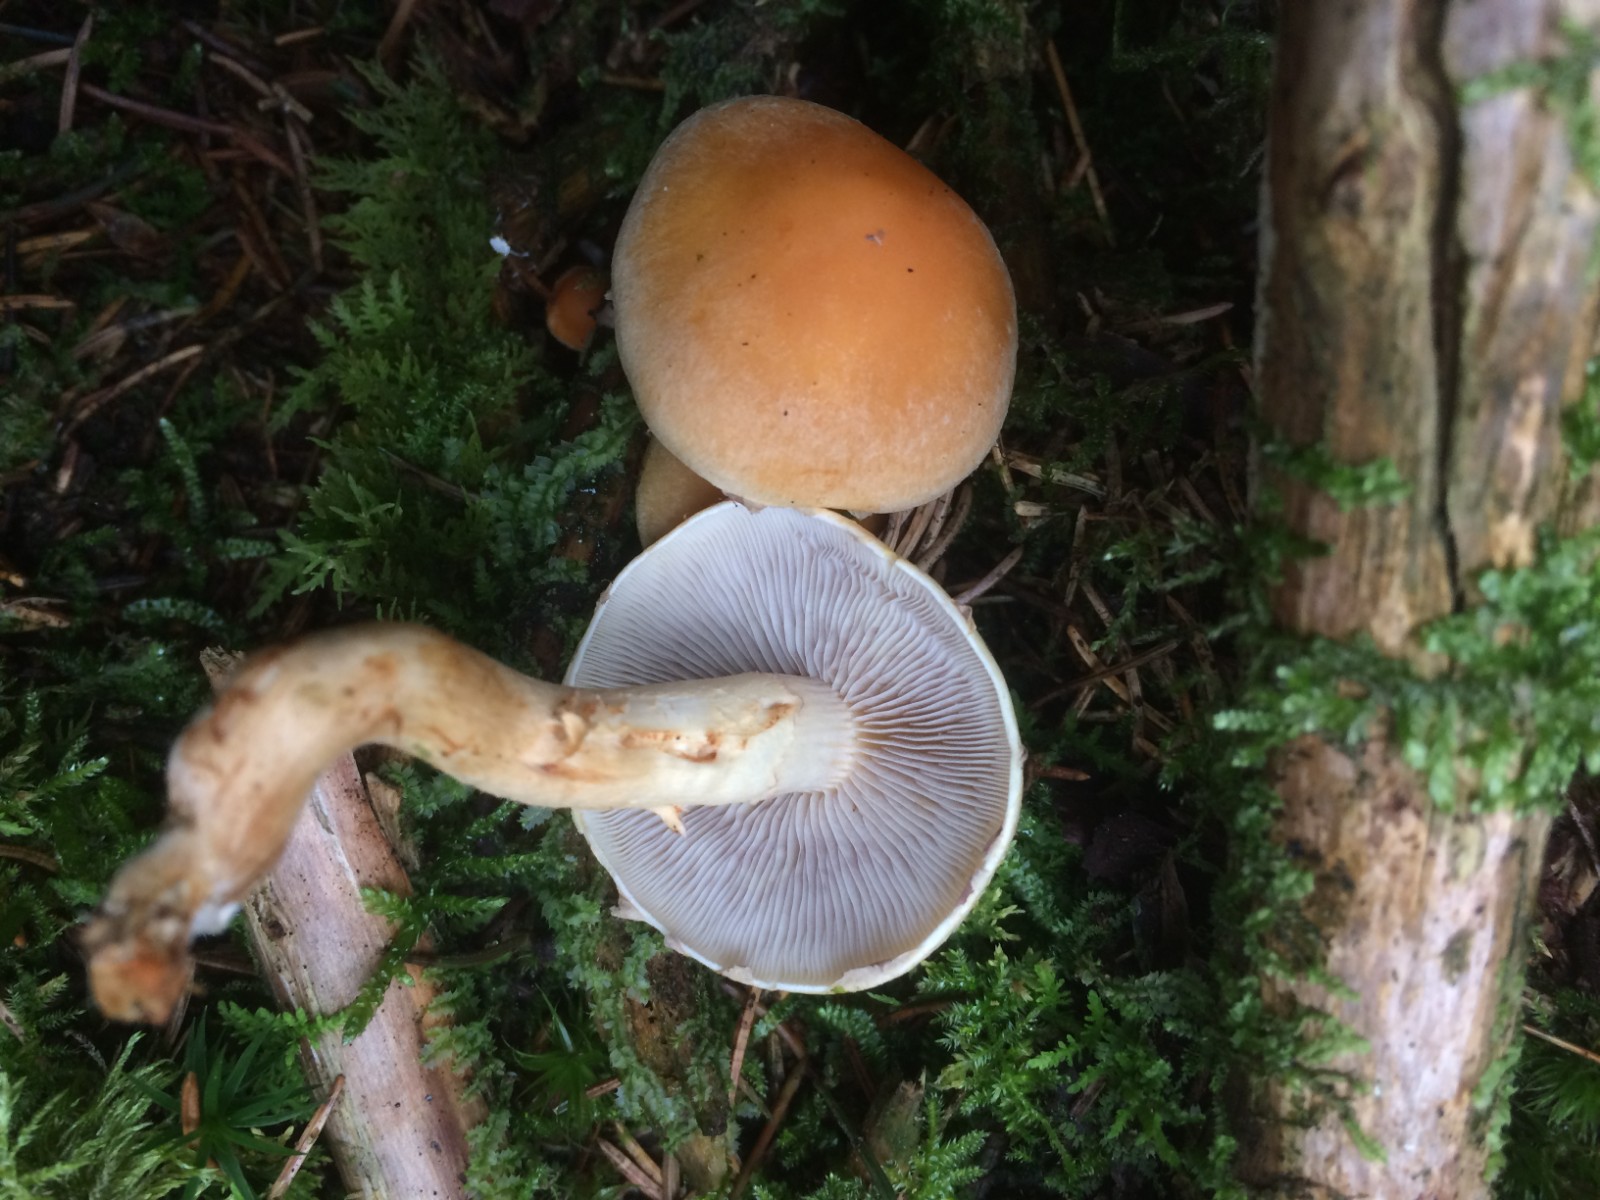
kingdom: Fungi
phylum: Basidiomycota
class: Agaricomycetes
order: Agaricales
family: Strophariaceae
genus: Hypholoma
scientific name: Hypholoma capnoides
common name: gran-svovlhat
